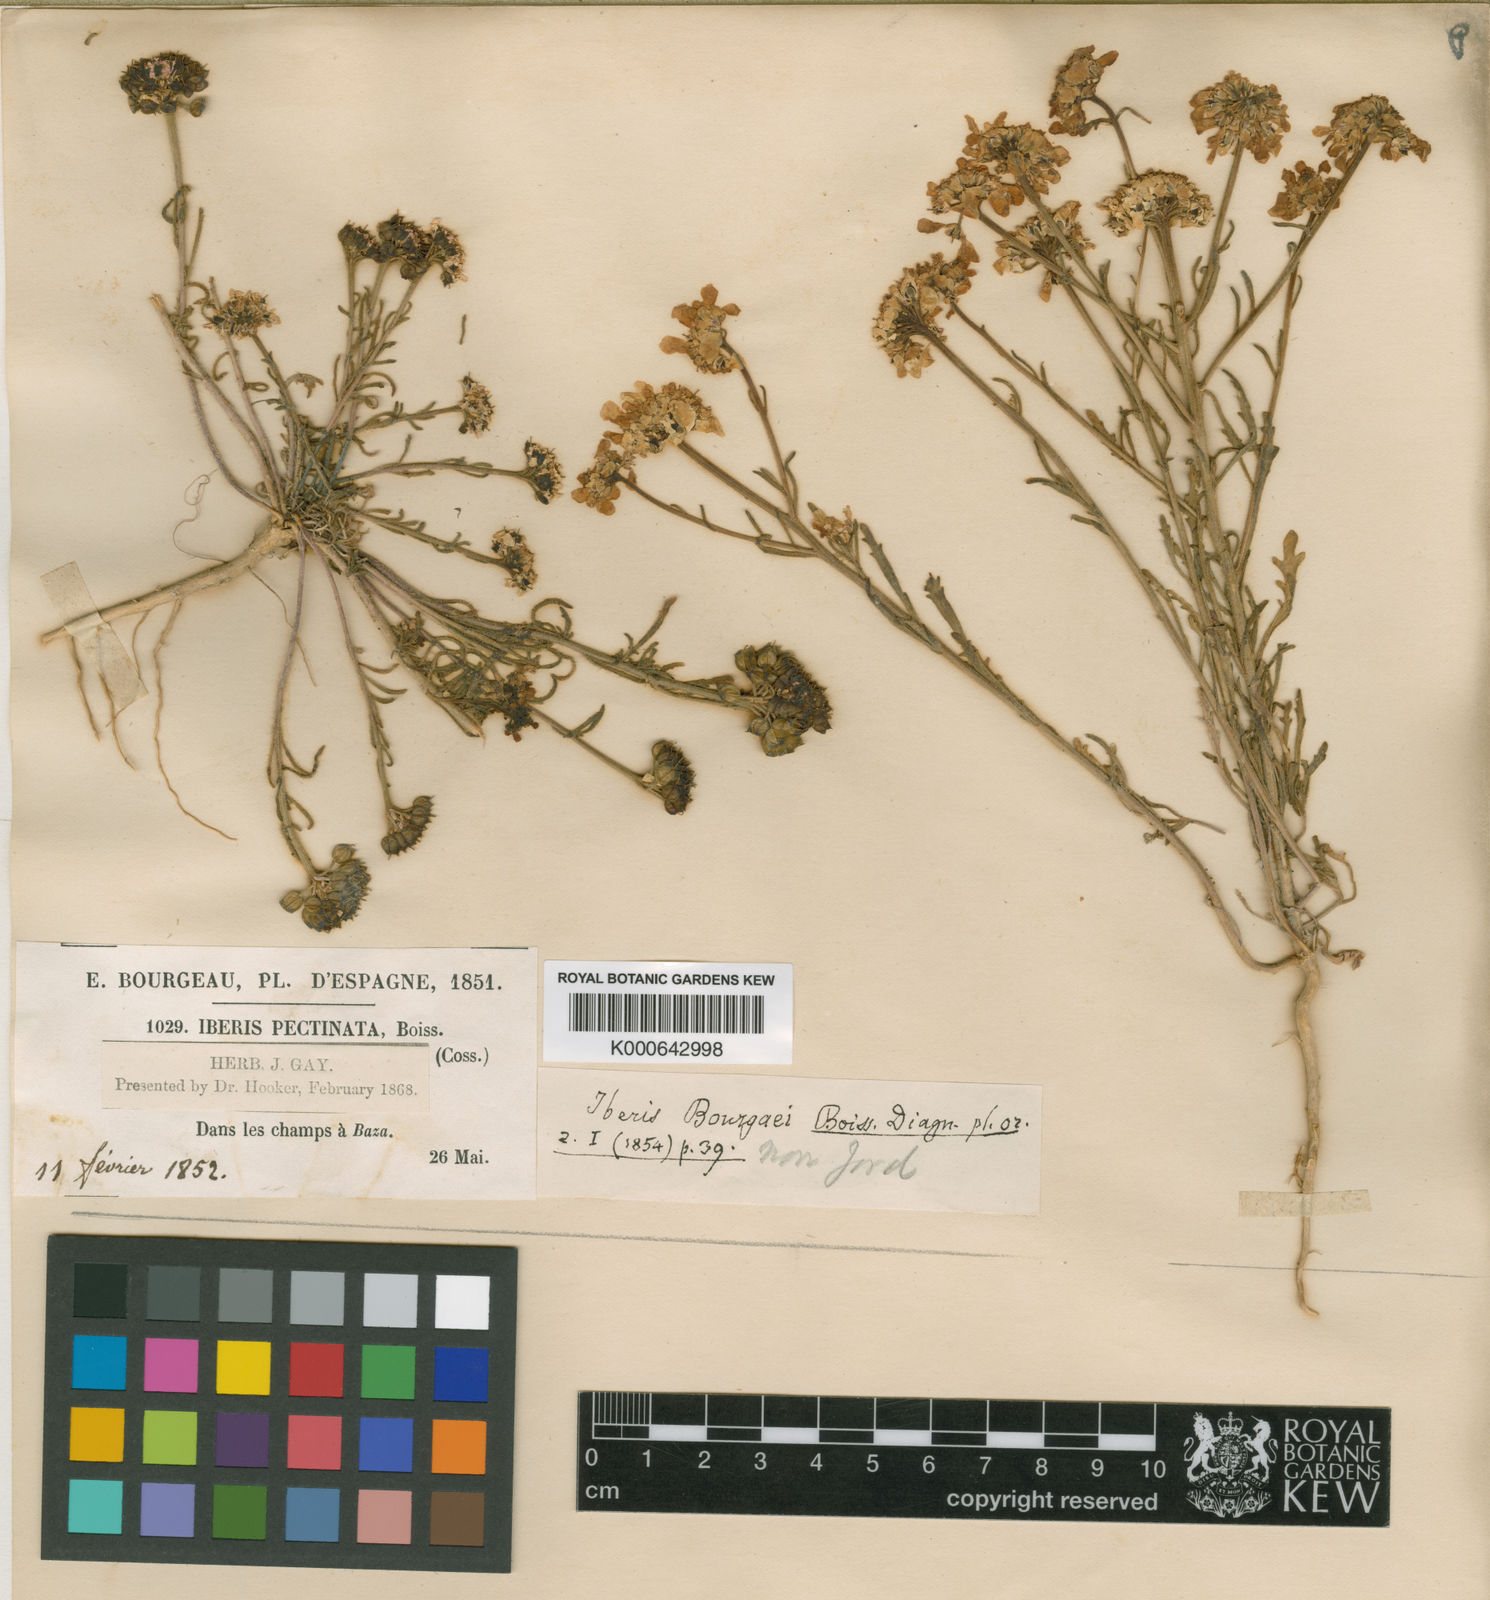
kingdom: Plantae
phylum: Tracheophyta
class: Magnoliopsida
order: Brassicales
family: Brassicaceae
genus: Iberis
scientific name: Iberis amara
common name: Annual candytuft
